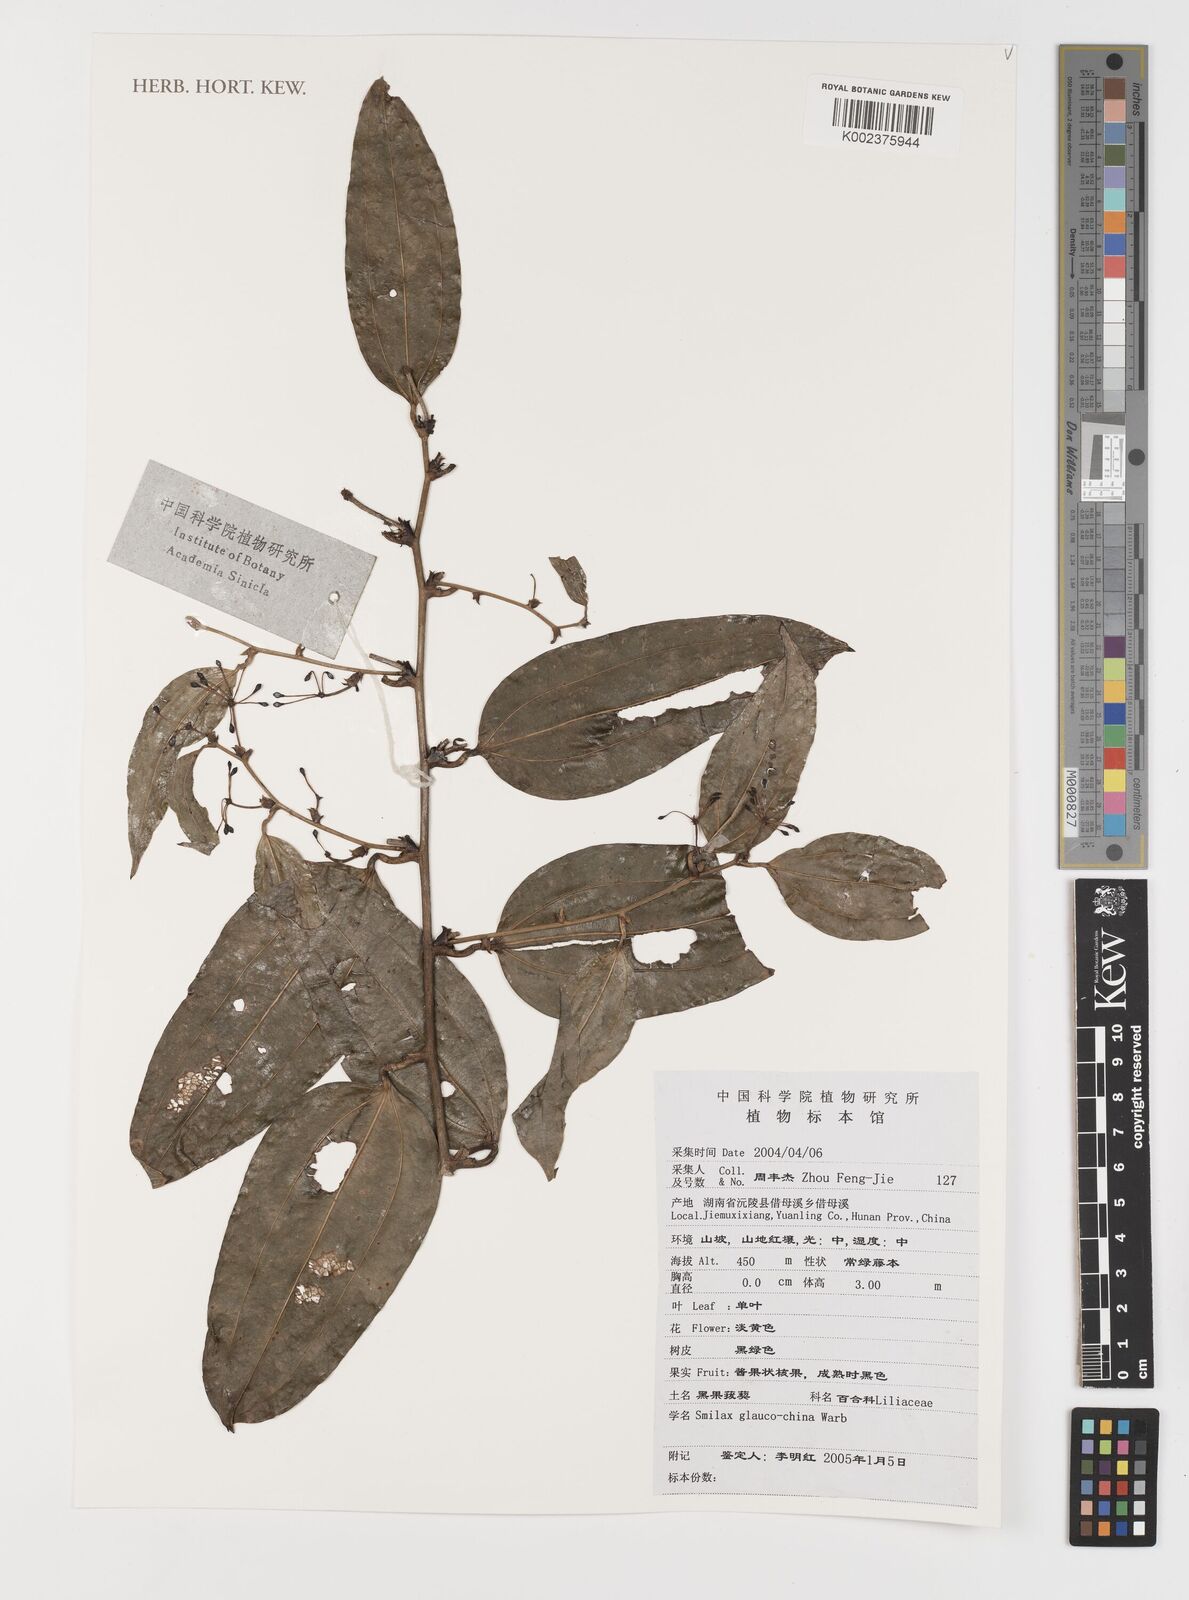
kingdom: Plantae
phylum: Tracheophyta
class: Liliopsida
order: Liliales
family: Smilacaceae
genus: Smilax
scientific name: Smilax glaucochina
